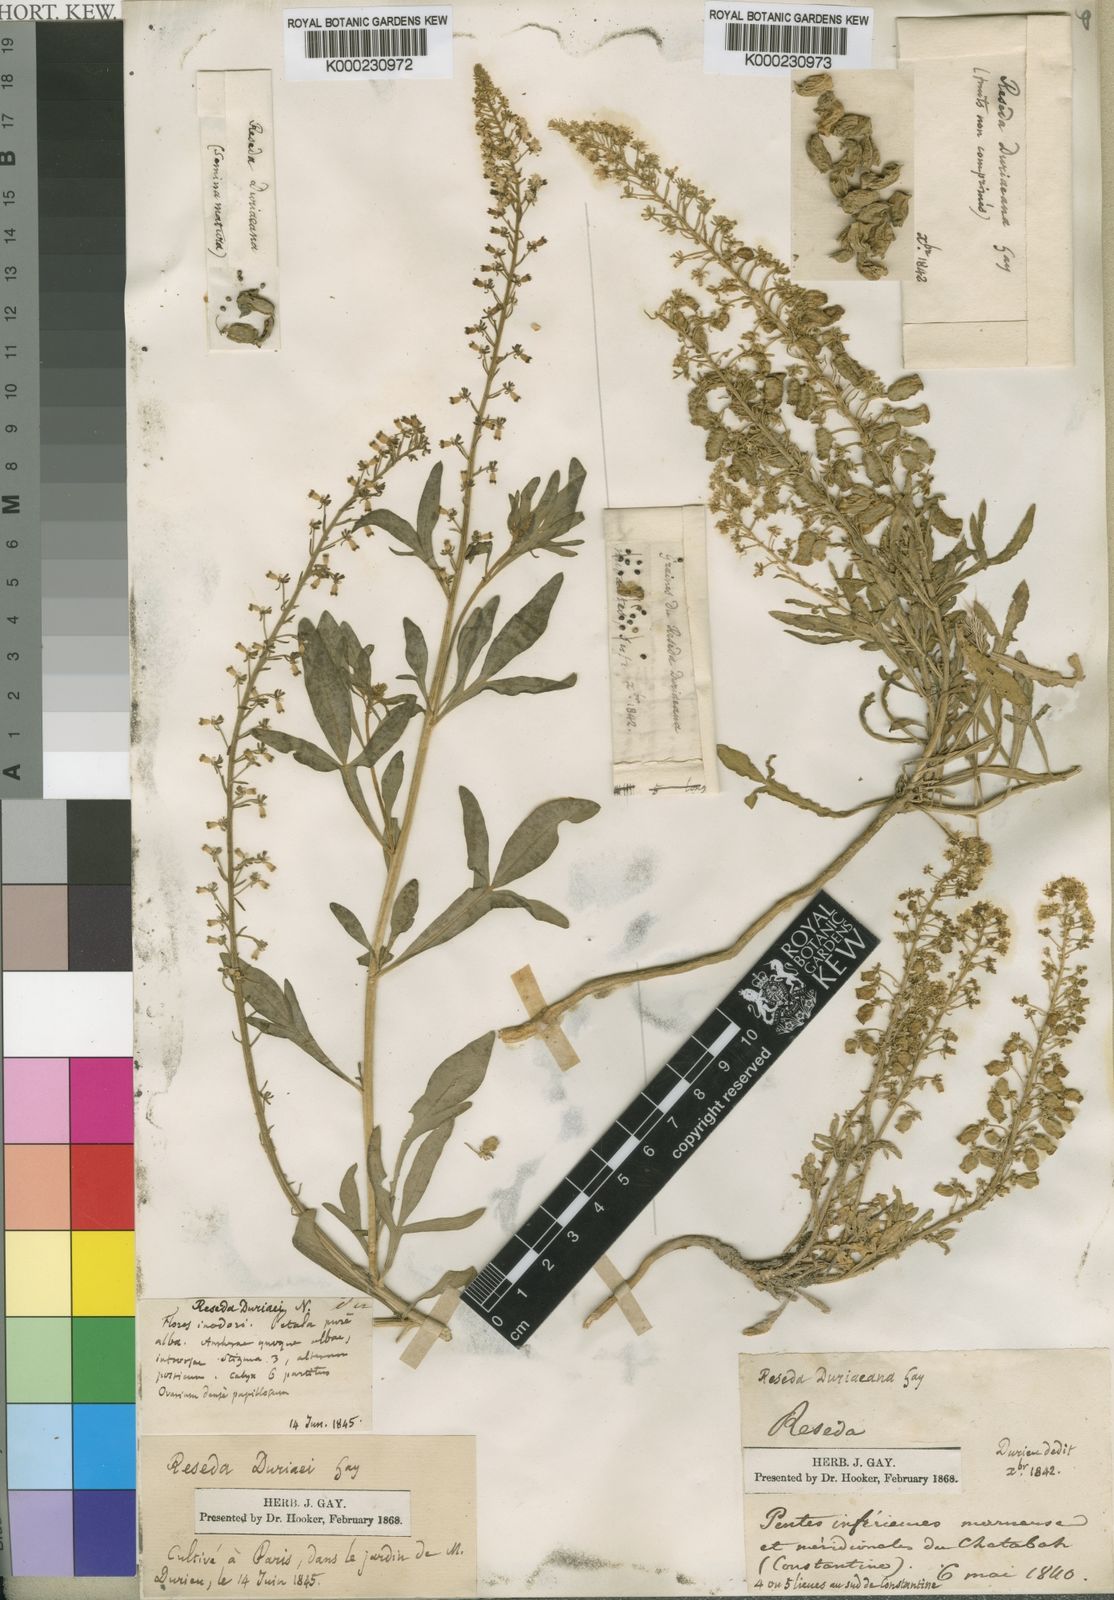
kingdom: Plantae
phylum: Tracheophyta
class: Magnoliopsida
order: Brassicales
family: Resedaceae
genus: Reseda
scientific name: Reseda duriaeana
